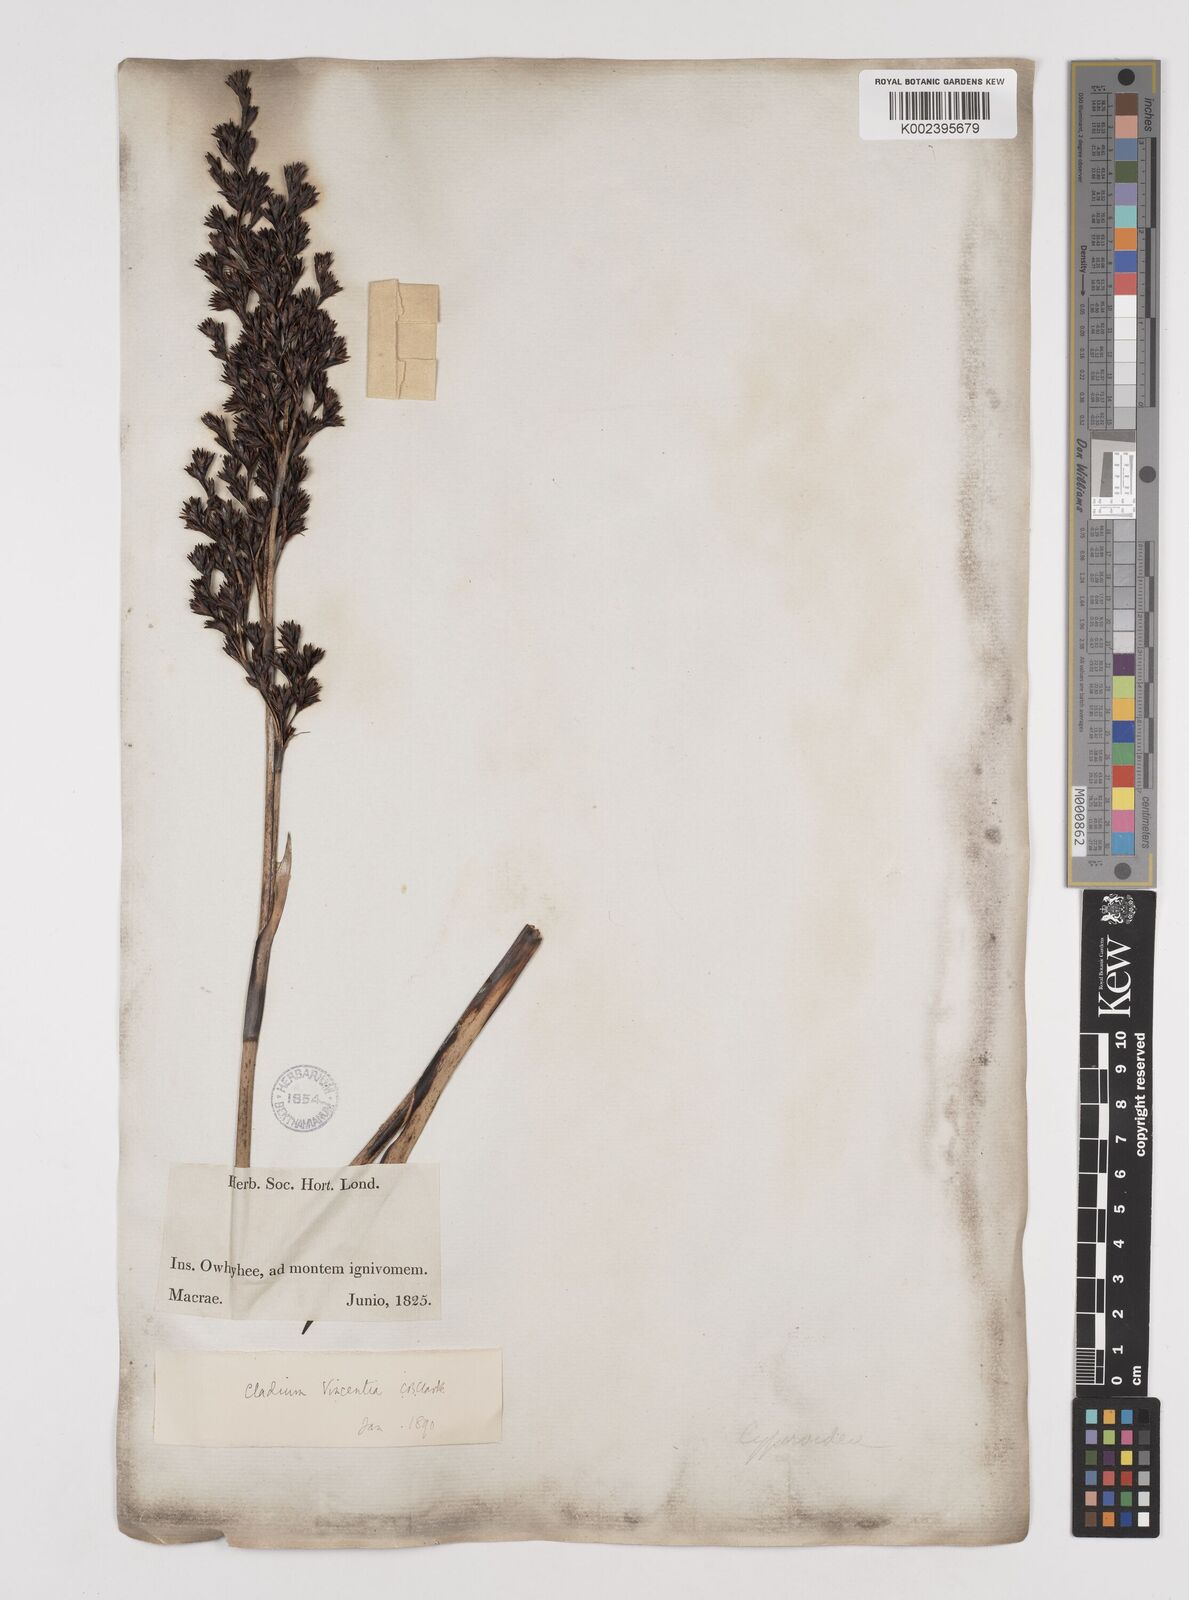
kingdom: Plantae
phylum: Tracheophyta
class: Liliopsida
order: Poales
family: Cyperaceae
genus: Machaerina
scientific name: Machaerina angustifolia
